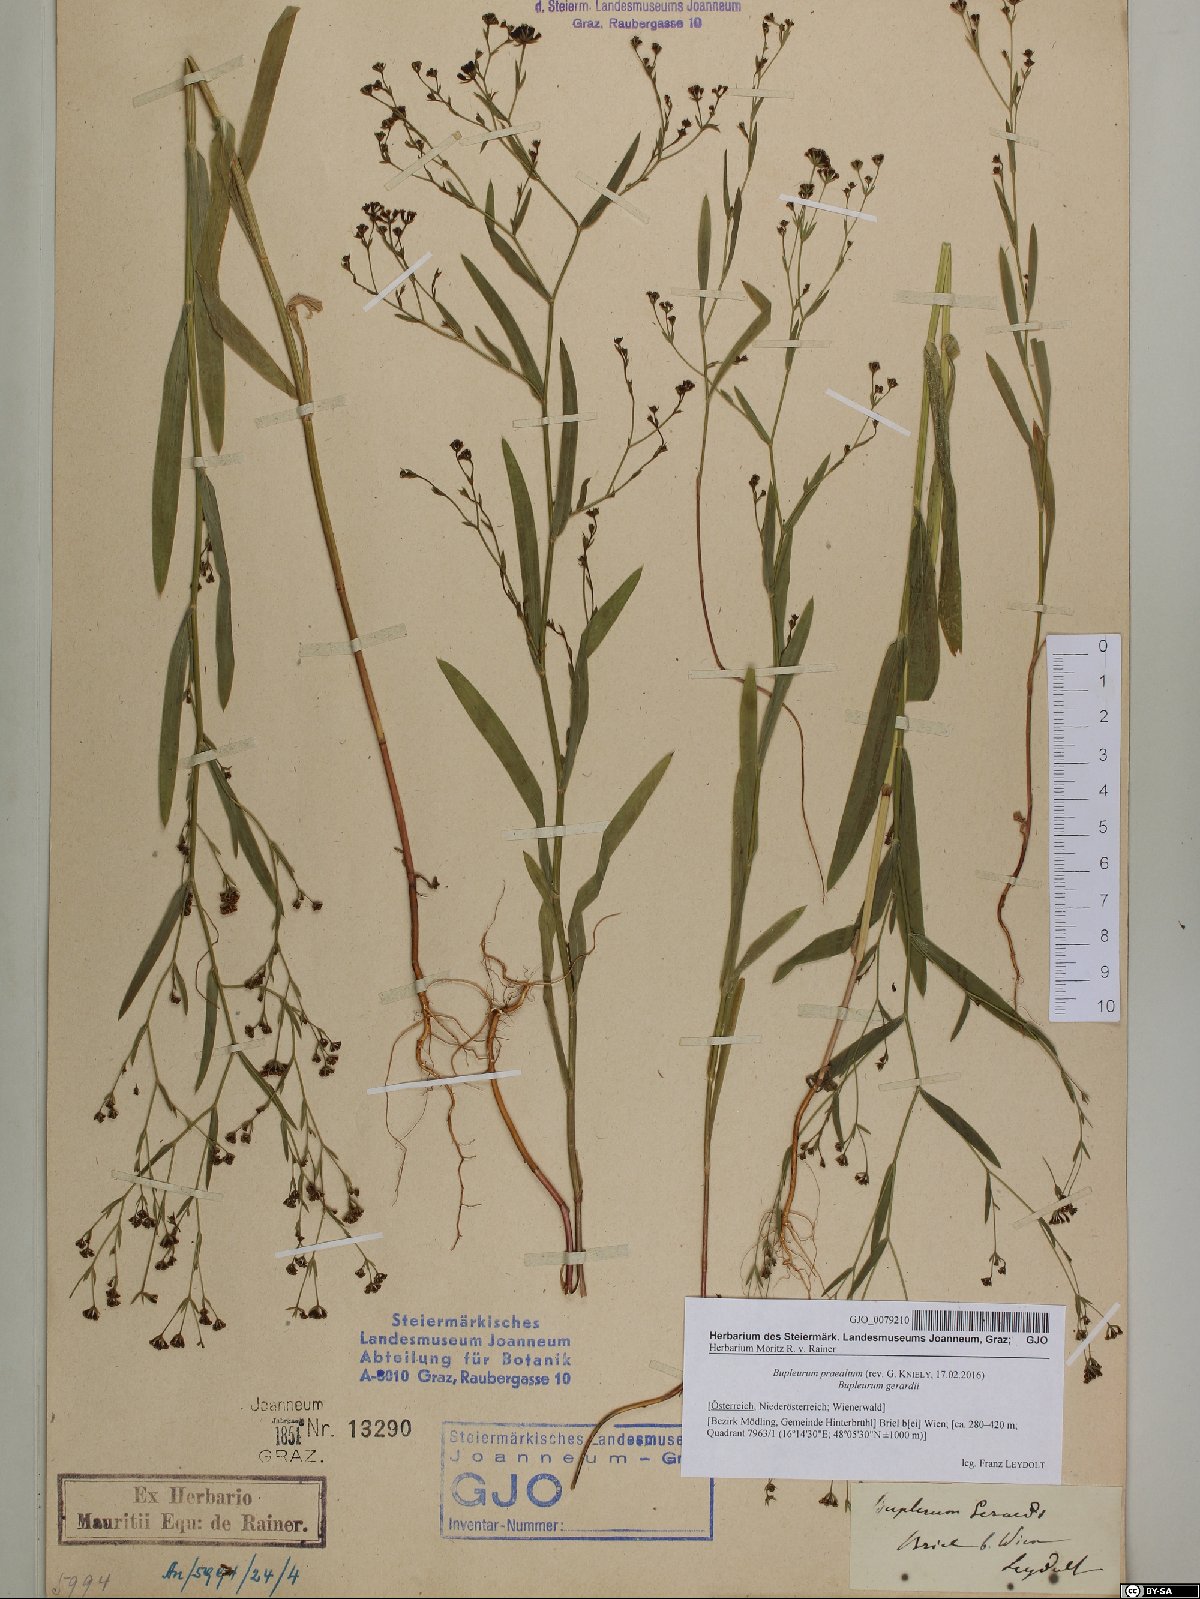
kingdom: Plantae
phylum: Tracheophyta
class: Magnoliopsida
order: Apiales
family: Apiaceae
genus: Bupleurum
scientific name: Bupleurum praealtum
